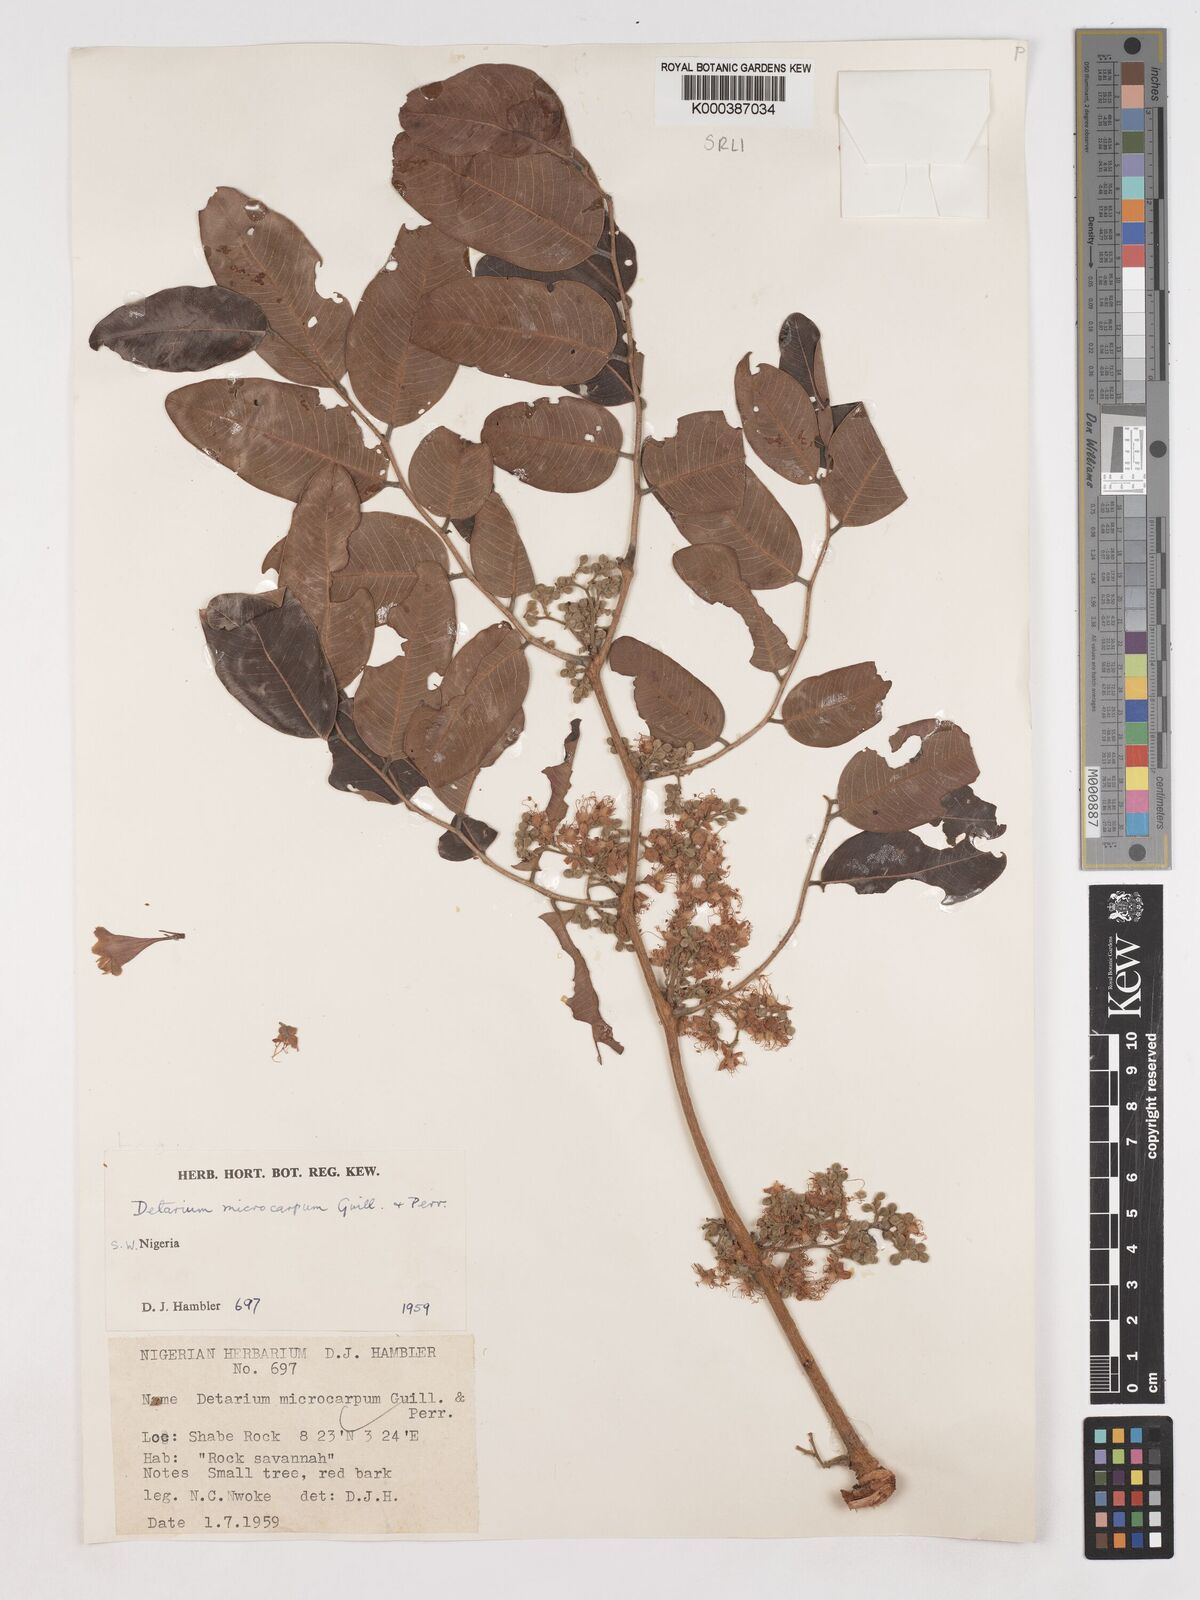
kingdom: Plantae
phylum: Tracheophyta
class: Magnoliopsida
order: Fabales
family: Fabaceae
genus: Detarium
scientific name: Detarium microcarpum
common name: Sweet dattock
